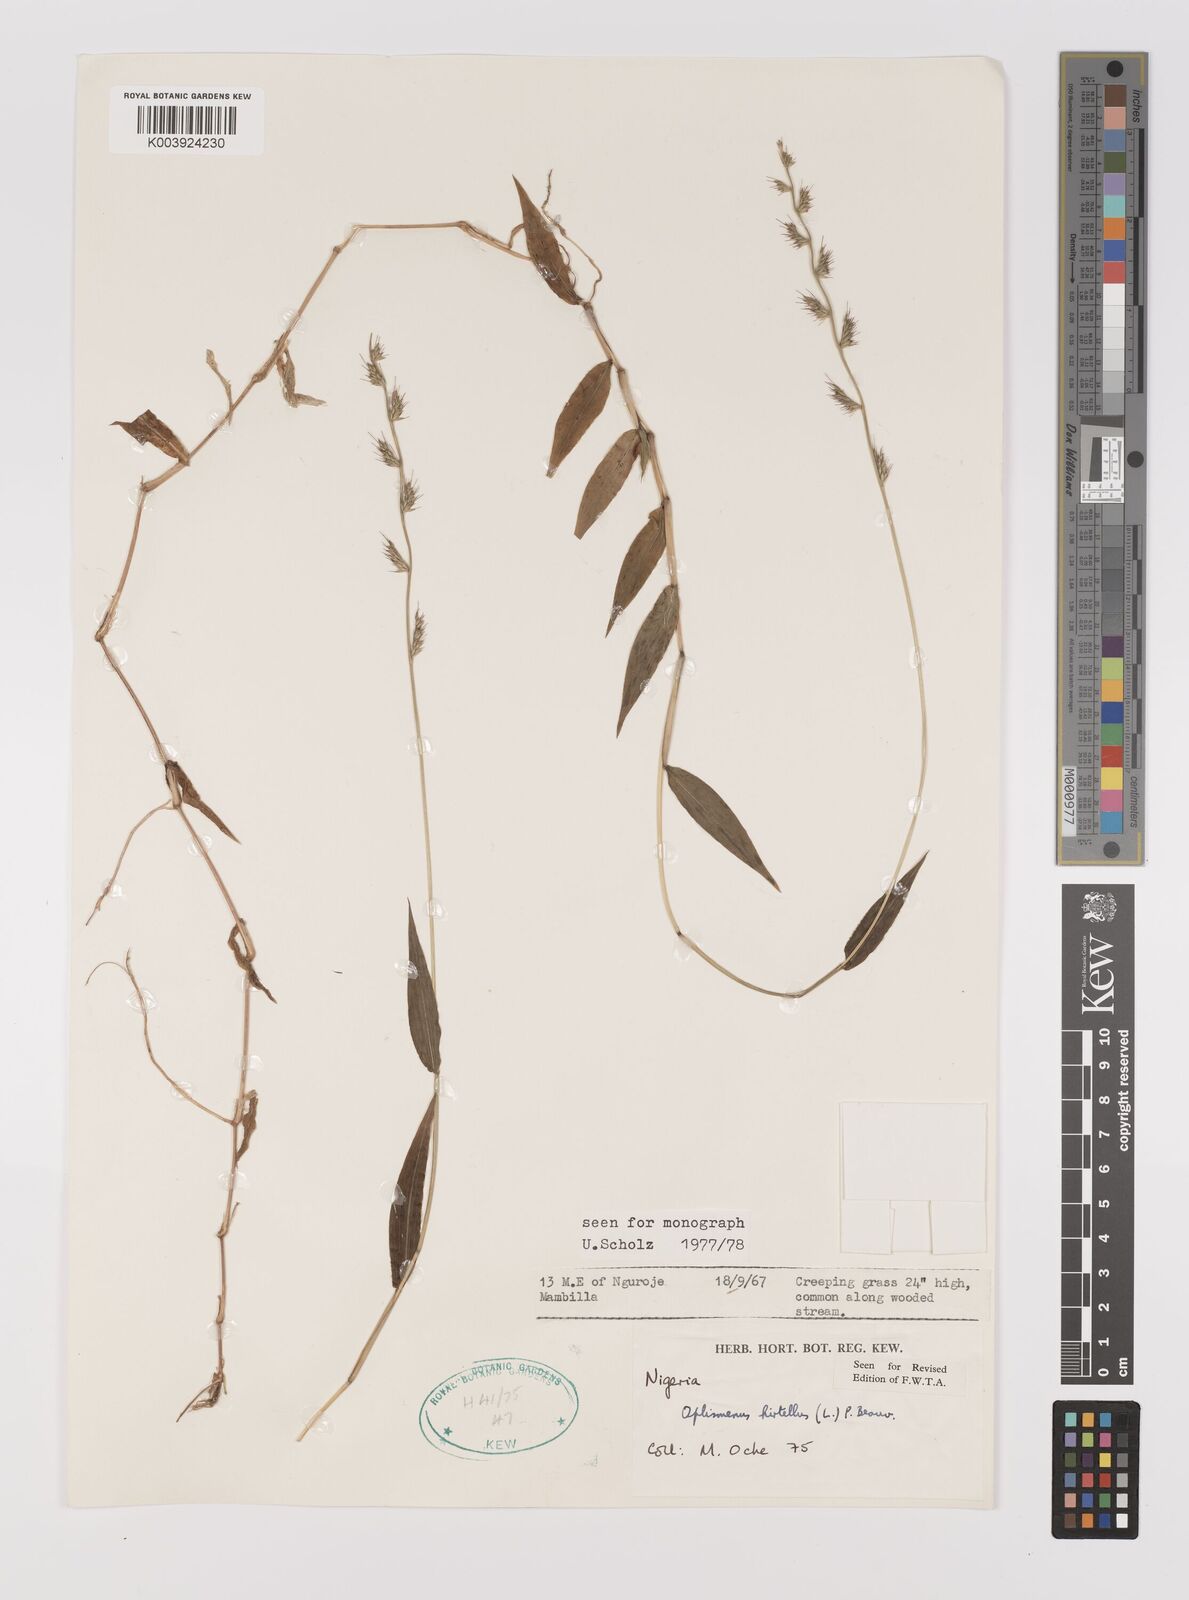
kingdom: Plantae
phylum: Tracheophyta
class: Liliopsida
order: Poales
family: Poaceae
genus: Oplismenus
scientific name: Oplismenus hirtellus
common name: Basketgrass
